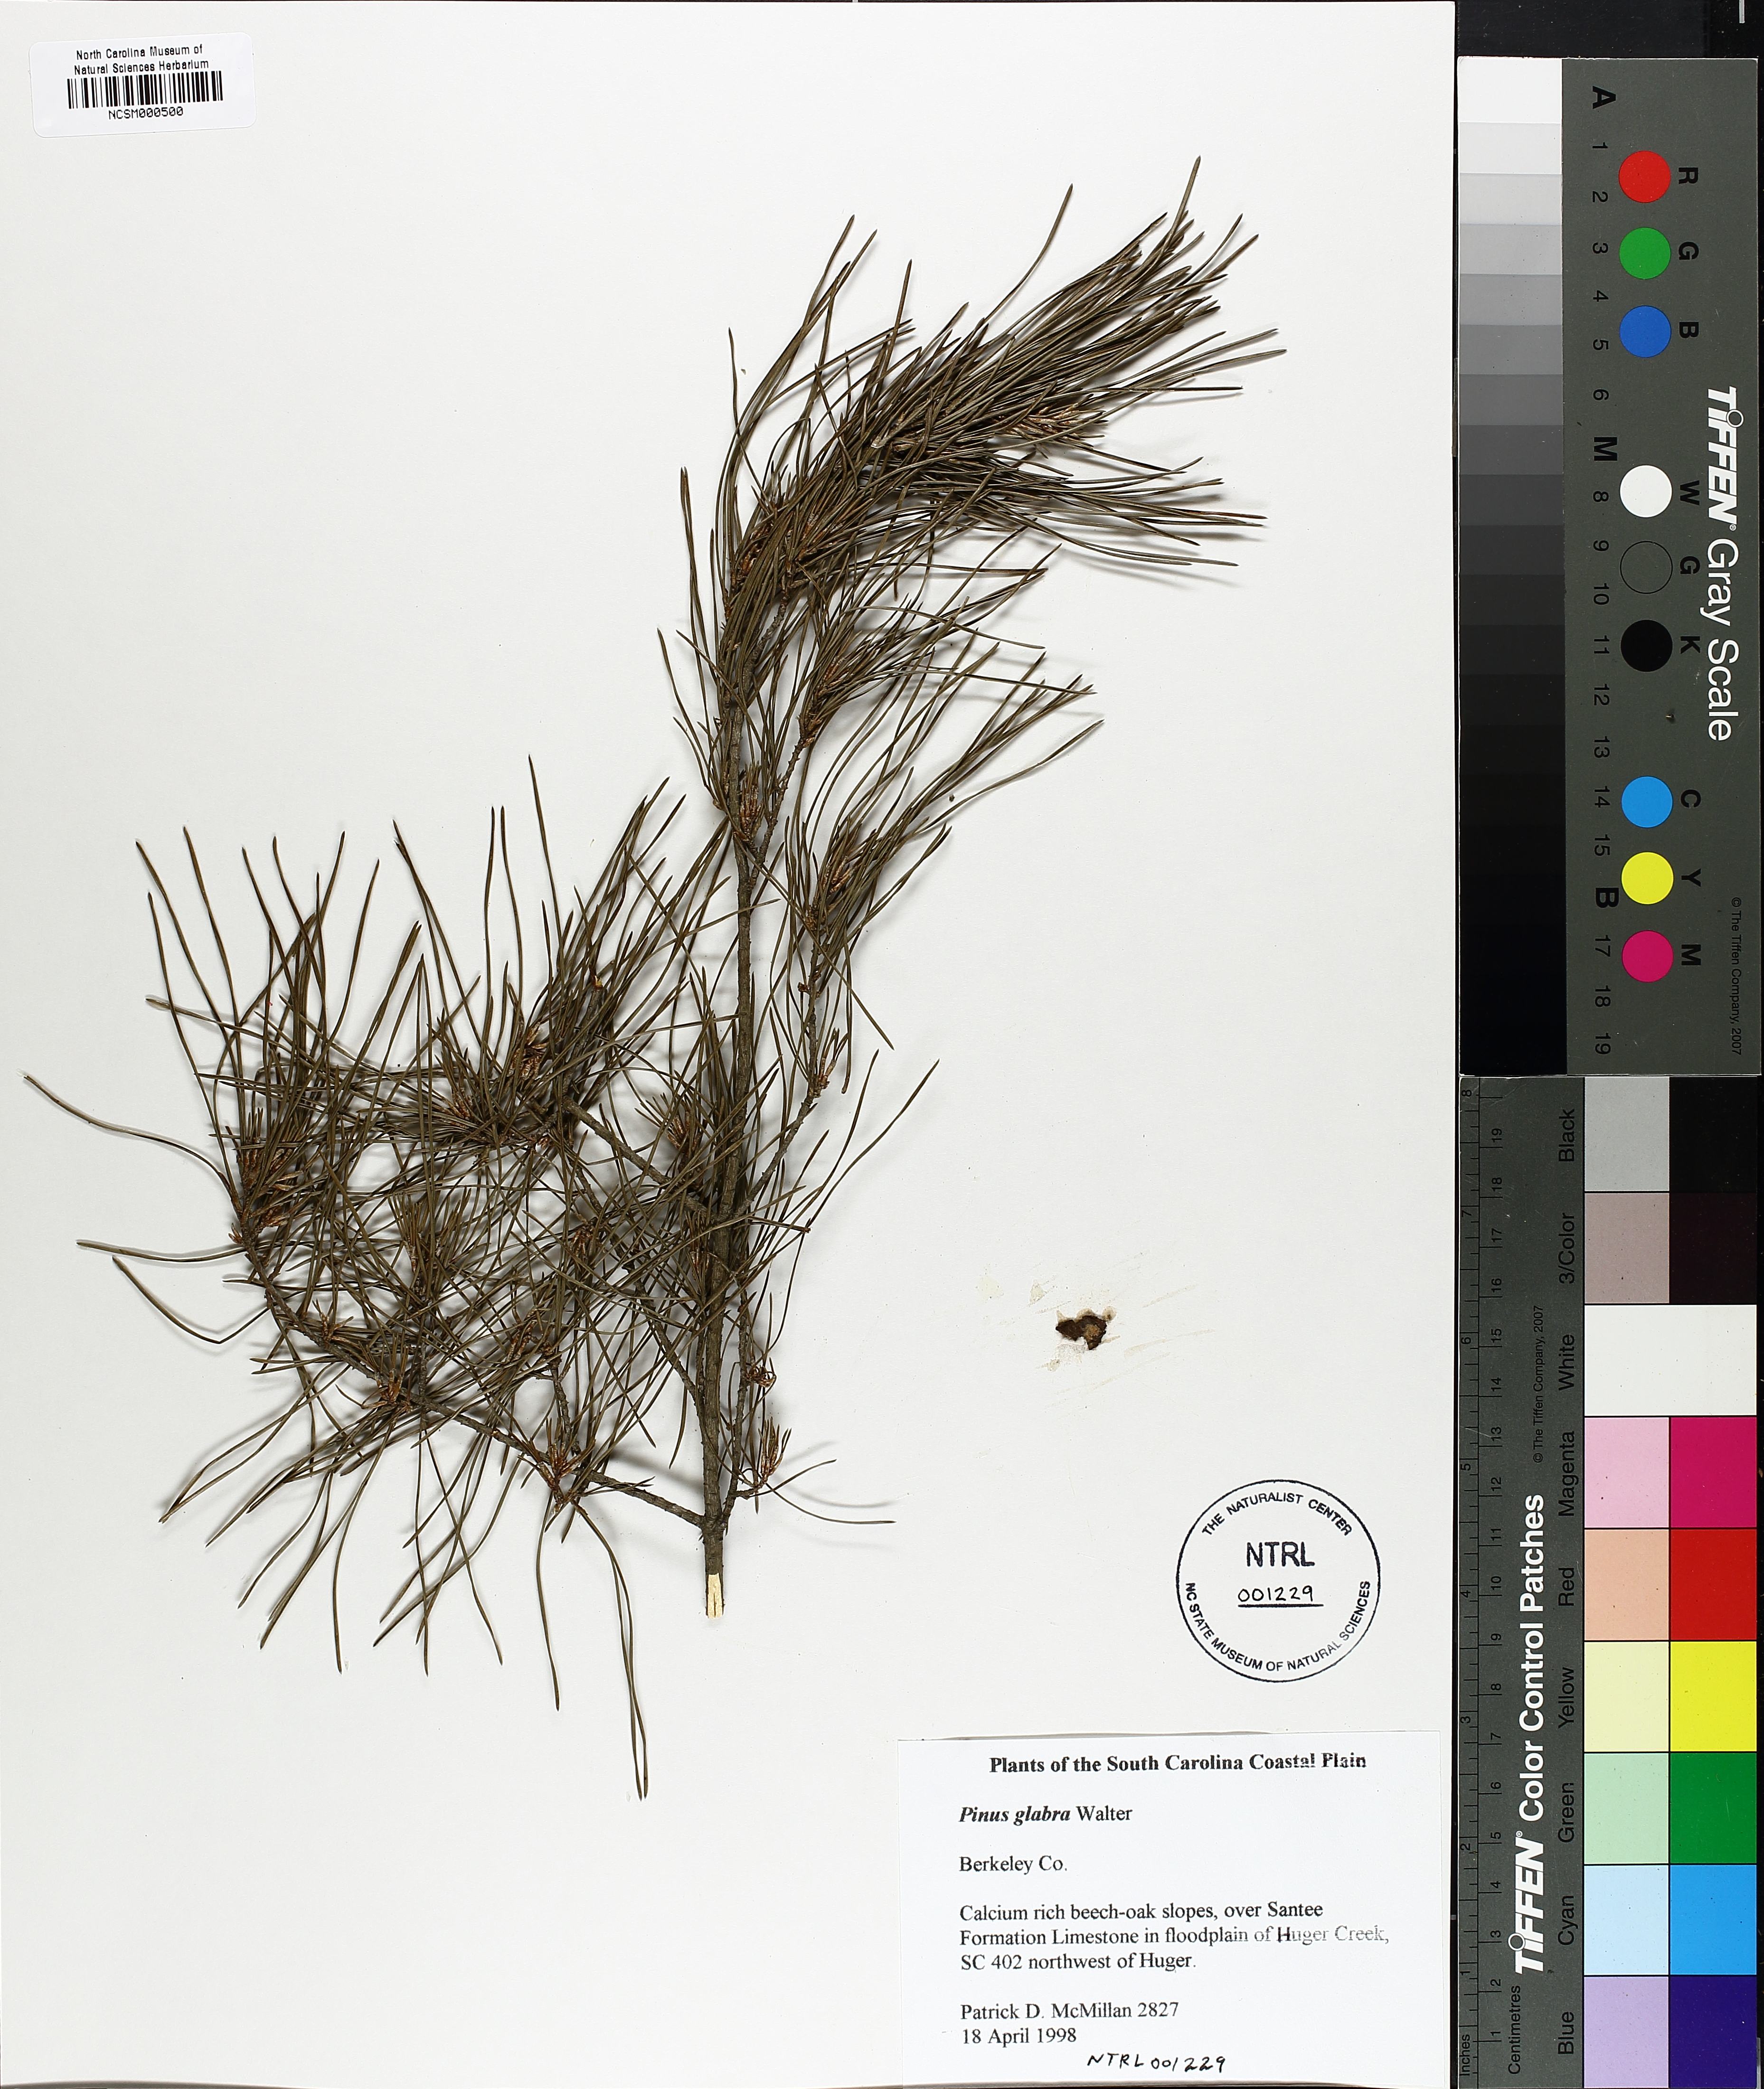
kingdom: Plantae
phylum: Tracheophyta
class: Pinopsida
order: Pinales
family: Pinaceae
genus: Pinus
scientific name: Pinus glabra
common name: Spruce pine
